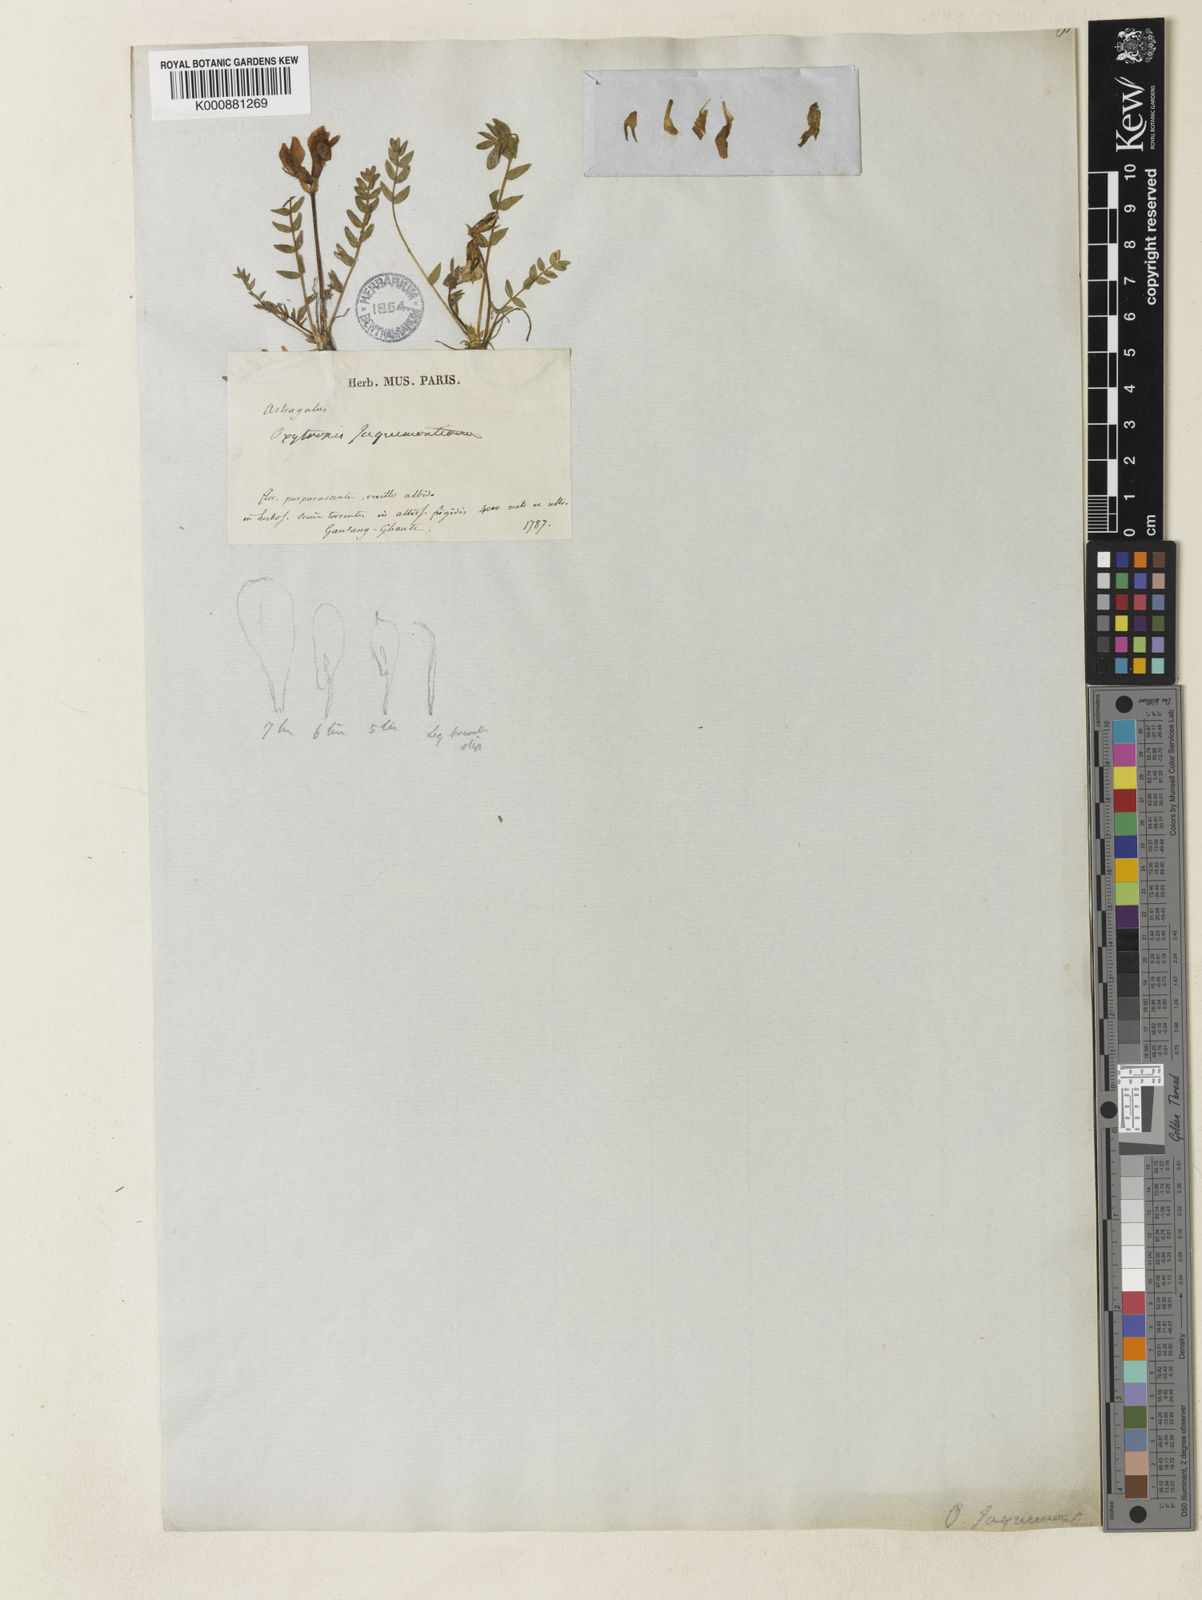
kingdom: Plantae
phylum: Tracheophyta
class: Magnoliopsida
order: Fabales
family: Fabaceae
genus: Oxytropis
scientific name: Oxytropis humifusa
